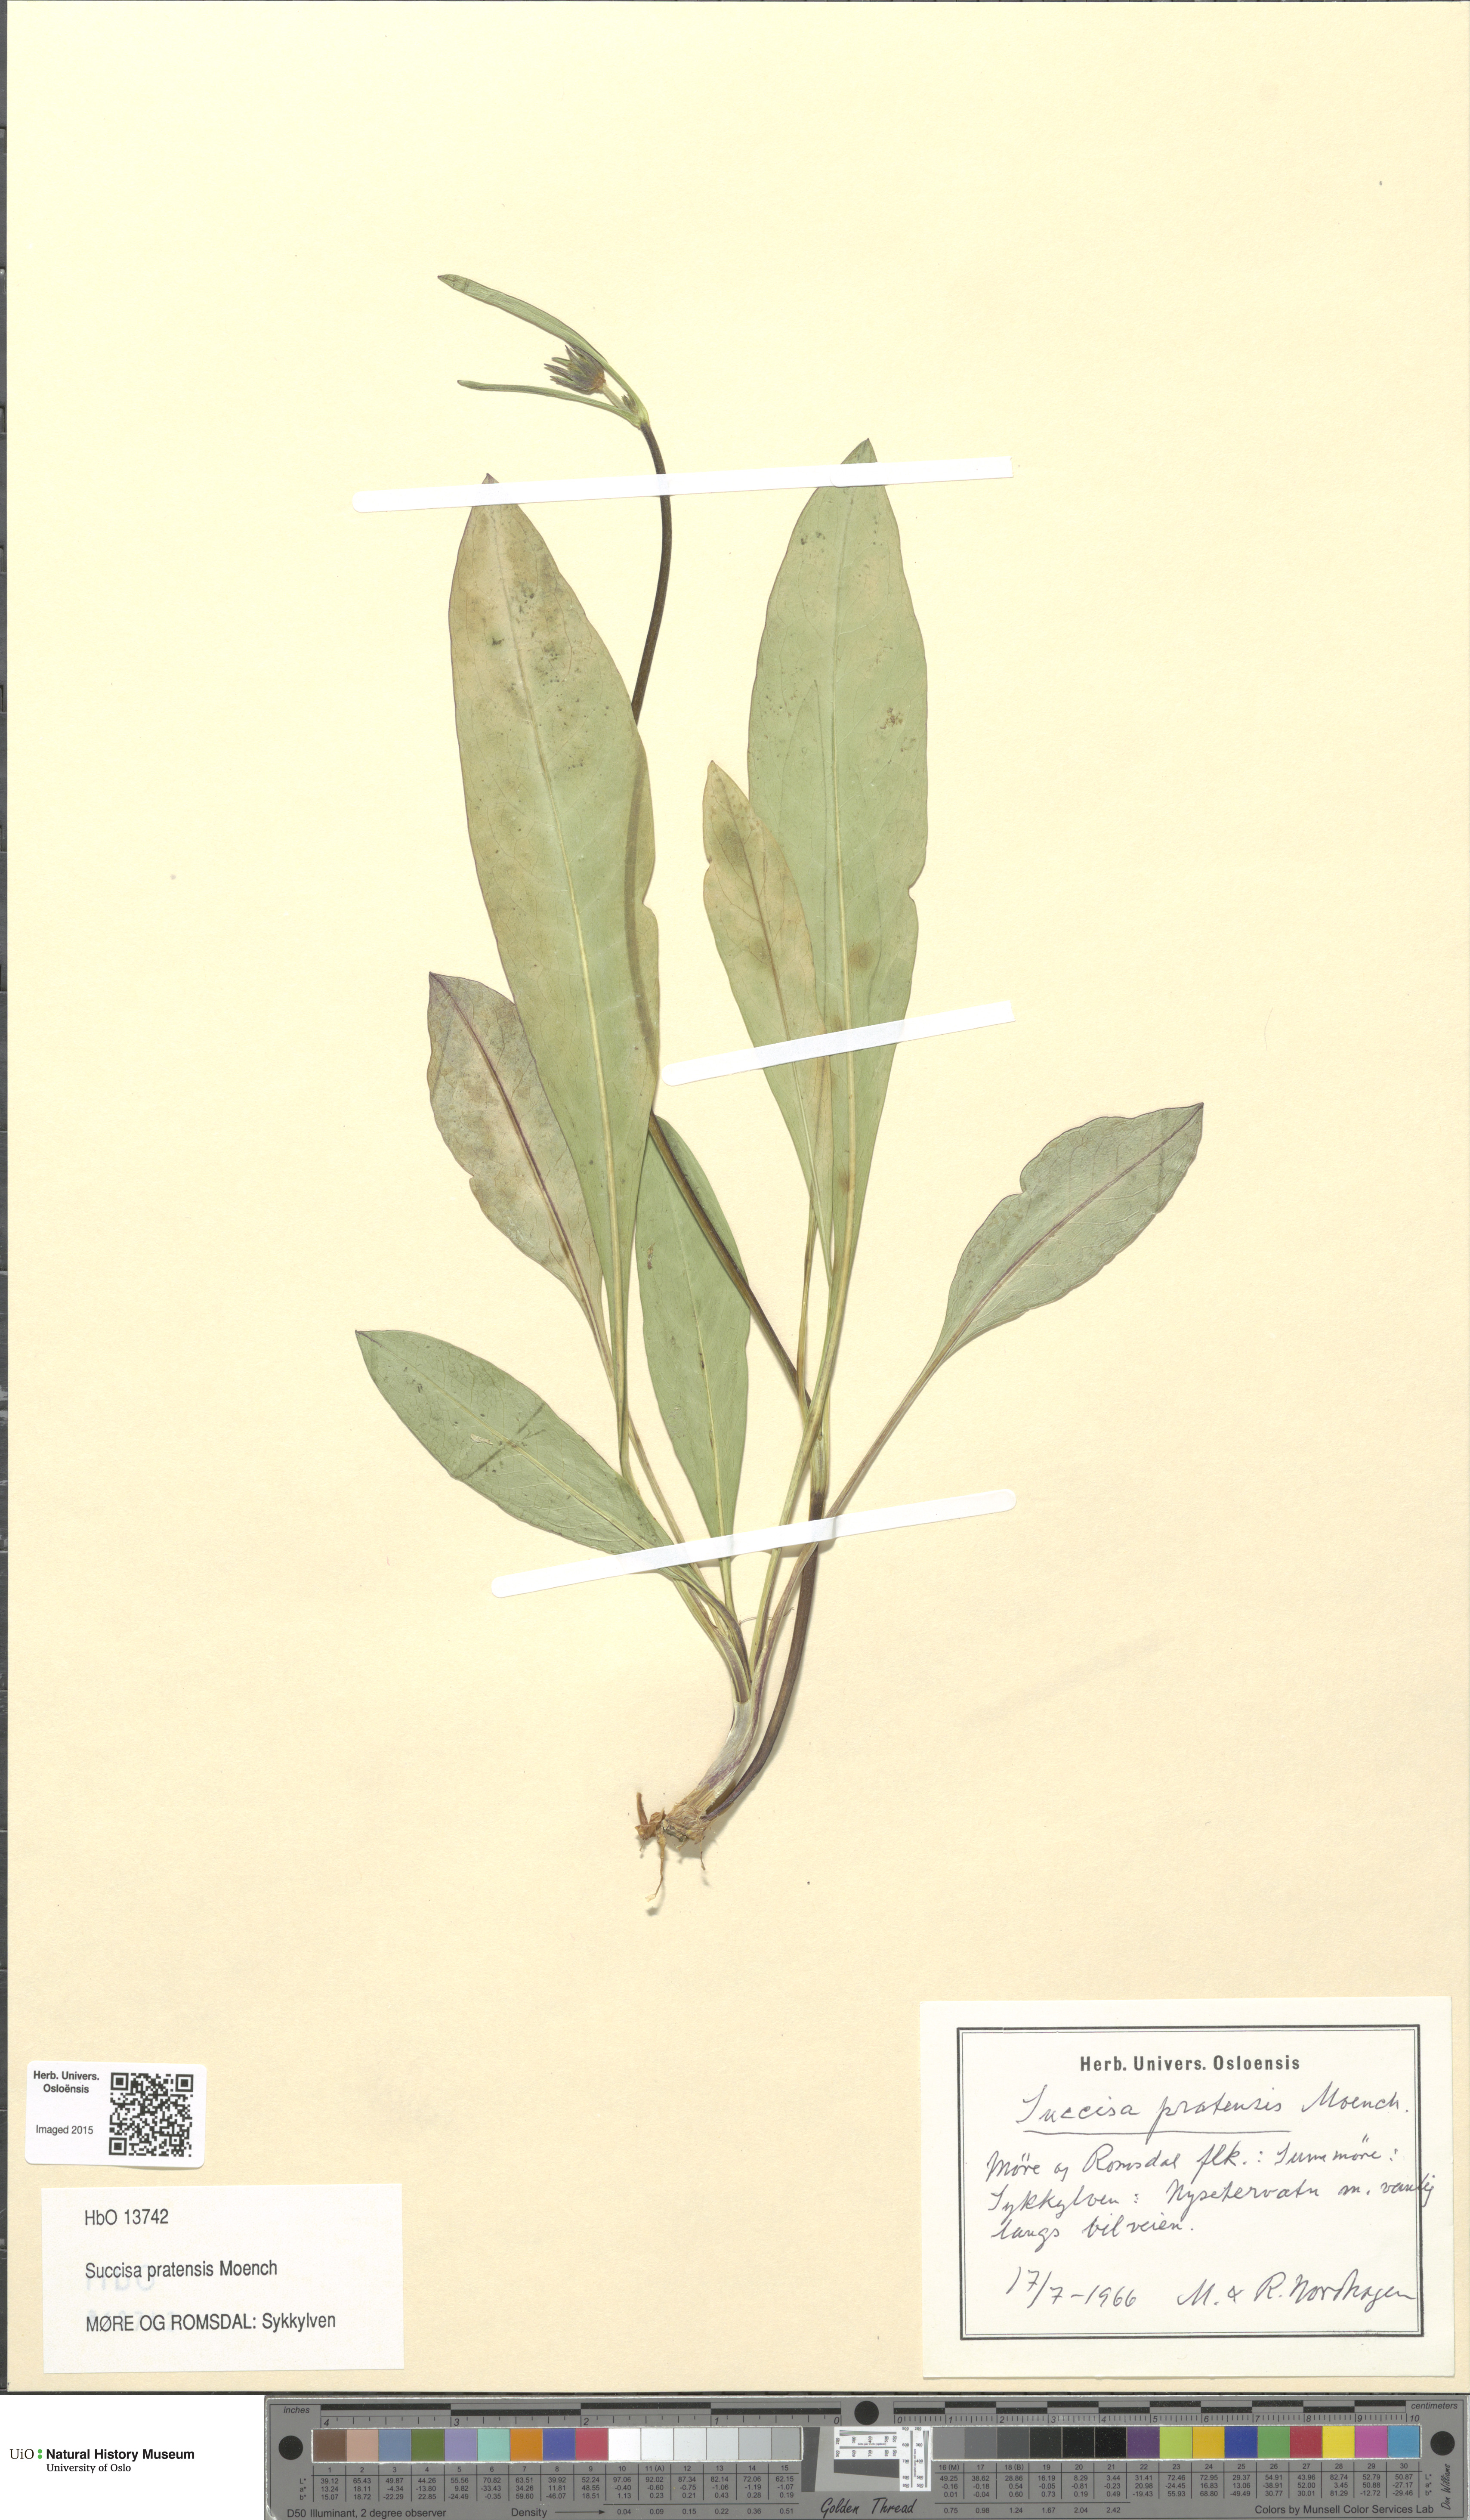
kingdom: Plantae
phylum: Tracheophyta
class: Magnoliopsida
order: Dipsacales
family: Caprifoliaceae
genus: Succisa
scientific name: Succisa pratensis
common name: Devil's-bit
